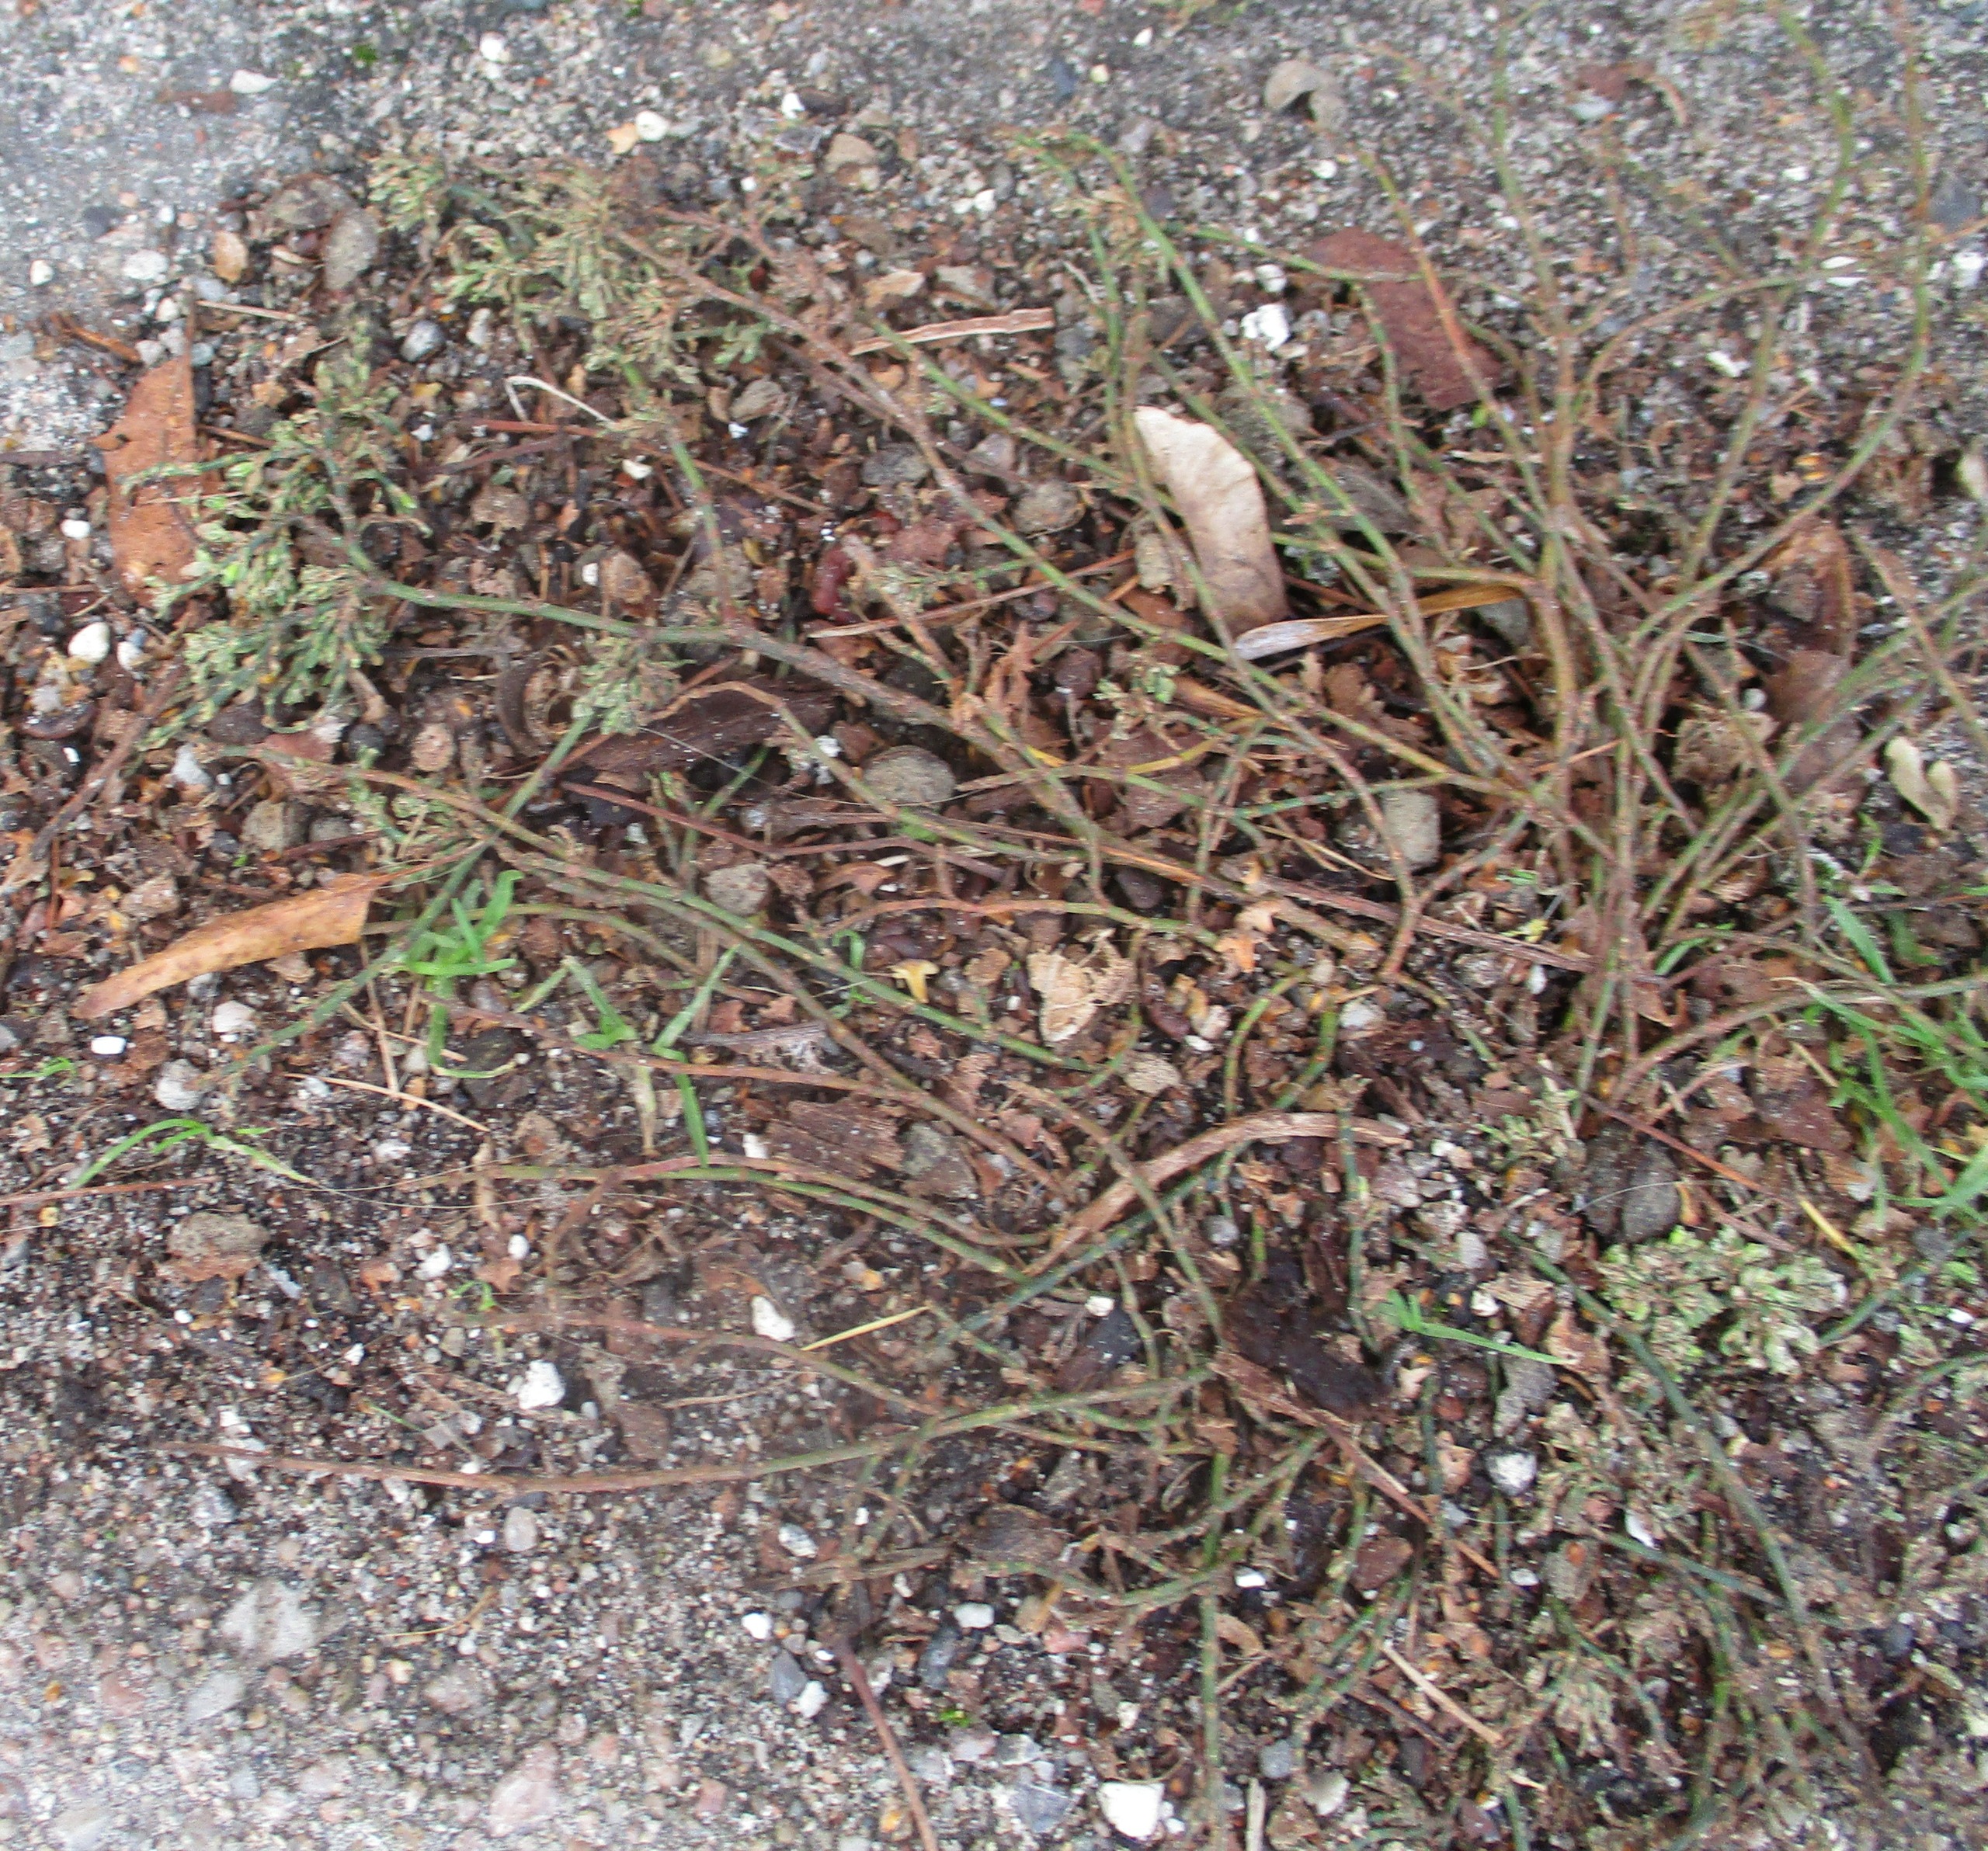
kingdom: Plantae
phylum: Tracheophyta
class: Magnoliopsida
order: Caryophyllales
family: Polygonaceae
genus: Polygonum
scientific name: Polygonum arenastrum
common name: Liggende vej-pileurt
